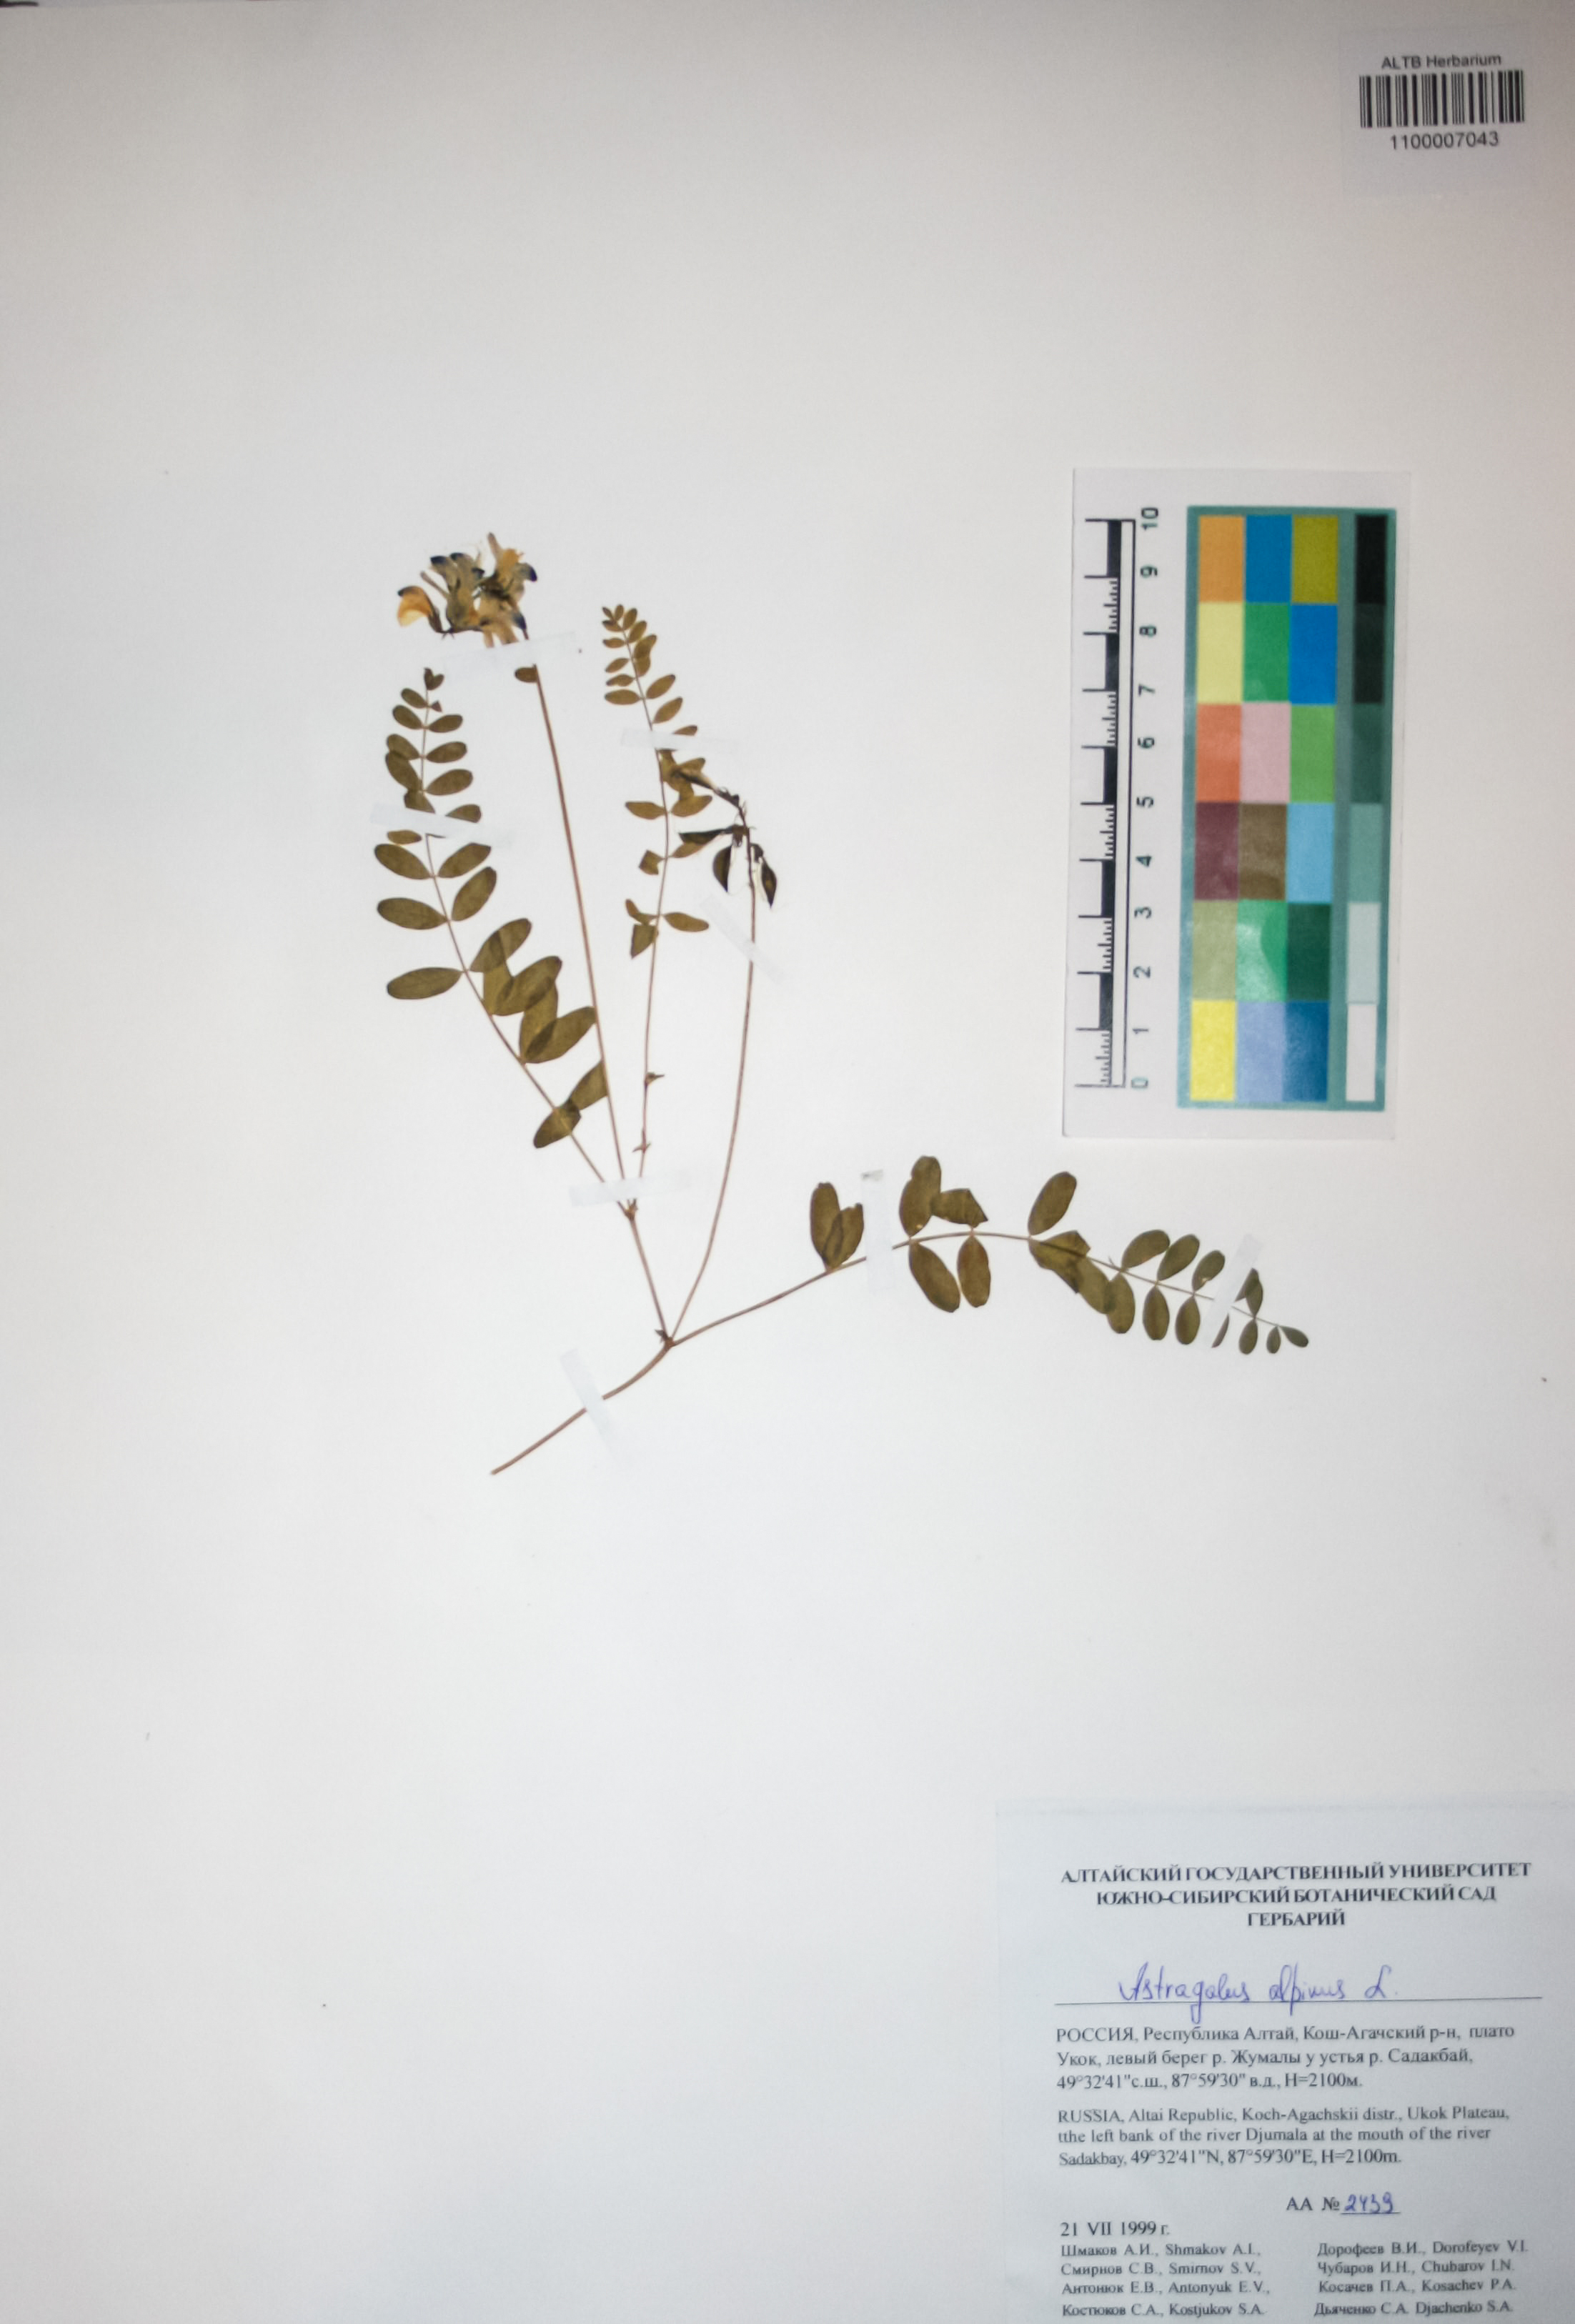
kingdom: Plantae
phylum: Tracheophyta
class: Magnoliopsida
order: Fabales
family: Fabaceae
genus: Astragalus
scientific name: Astragalus alpinus
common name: Alpine milk-vetch
